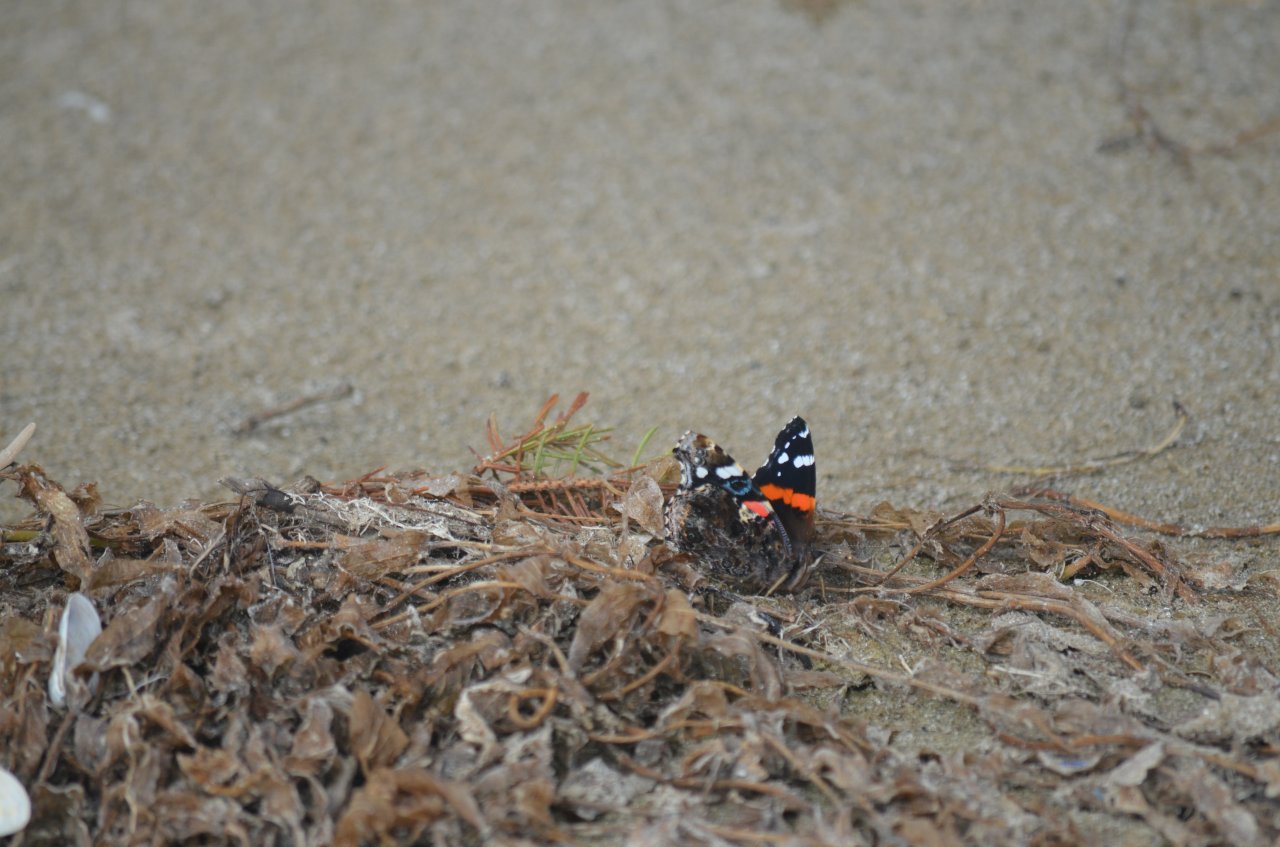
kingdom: Animalia
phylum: Arthropoda
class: Insecta
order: Lepidoptera
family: Nymphalidae
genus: Vanessa
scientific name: Vanessa atalanta
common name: Red Admiral
